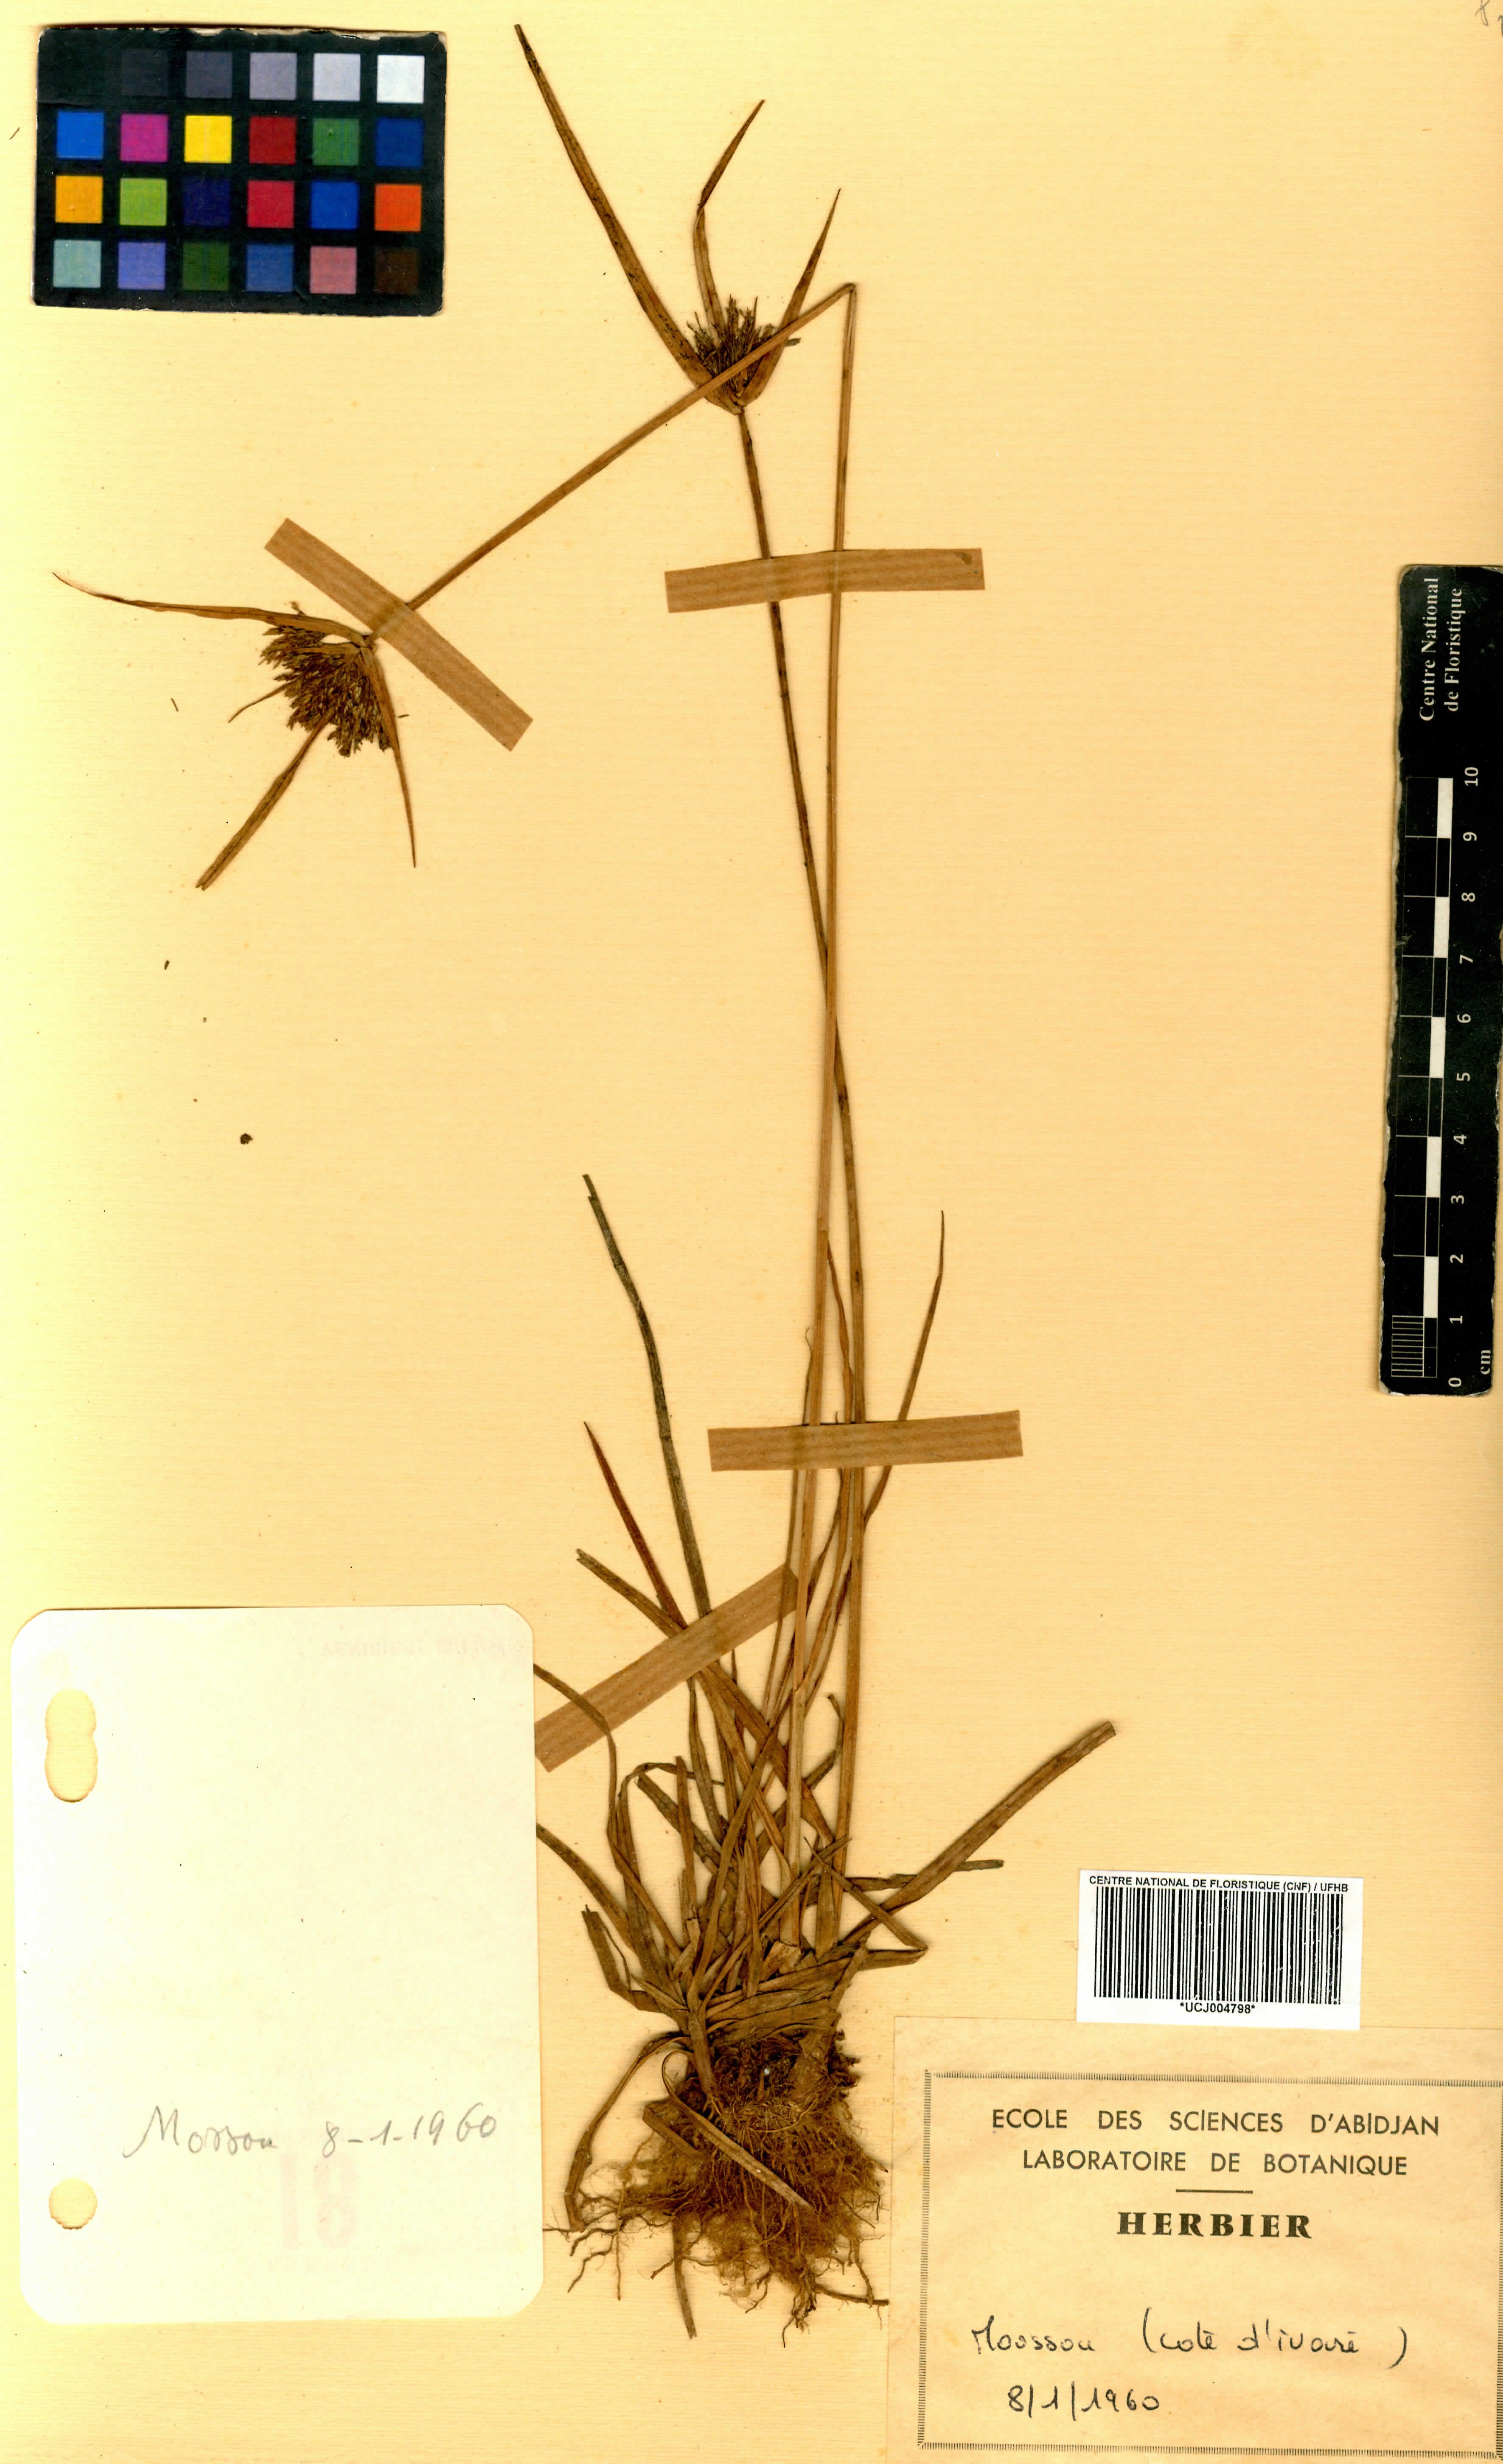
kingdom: Plantae
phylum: Tracheophyta
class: Liliopsida
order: Poales
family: Cyperaceae
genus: Cyperus
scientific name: Cyperus
